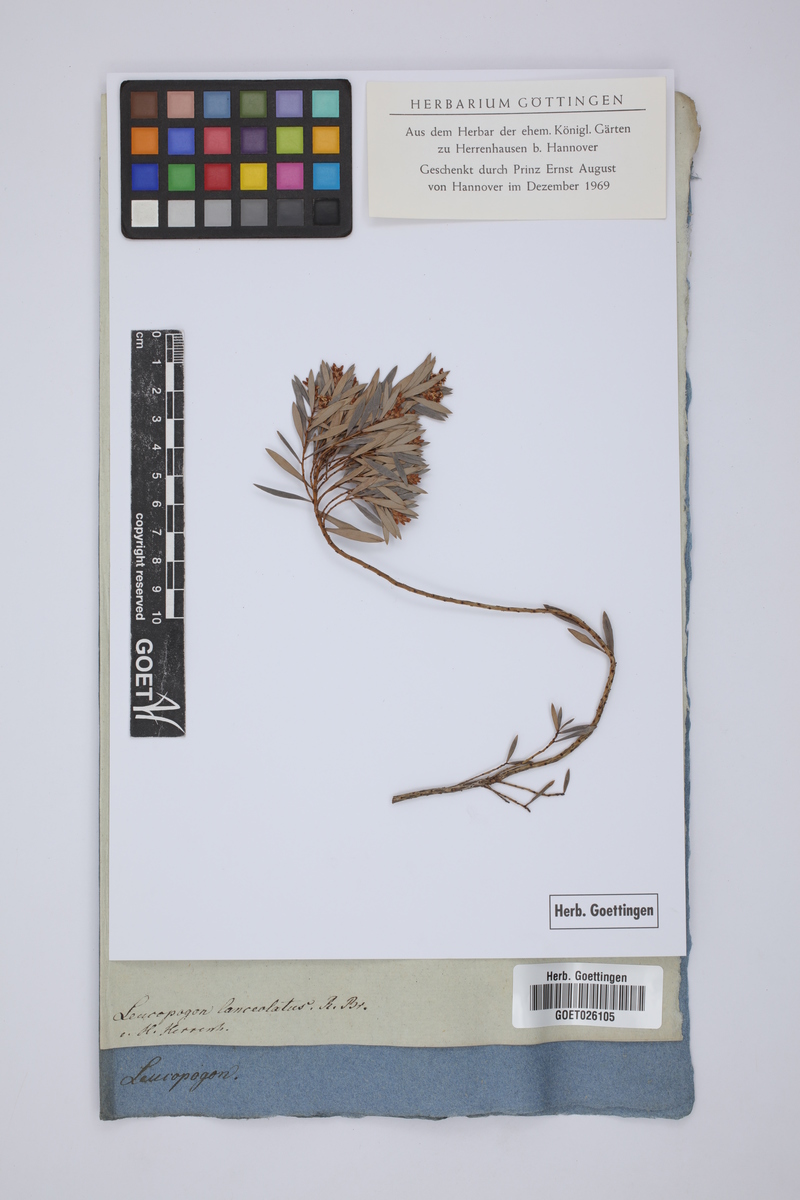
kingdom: Plantae
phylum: Tracheophyta
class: Magnoliopsida
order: Ericales
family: Ericaceae
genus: Leucopogon
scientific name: Leucopogon lanceolatus
